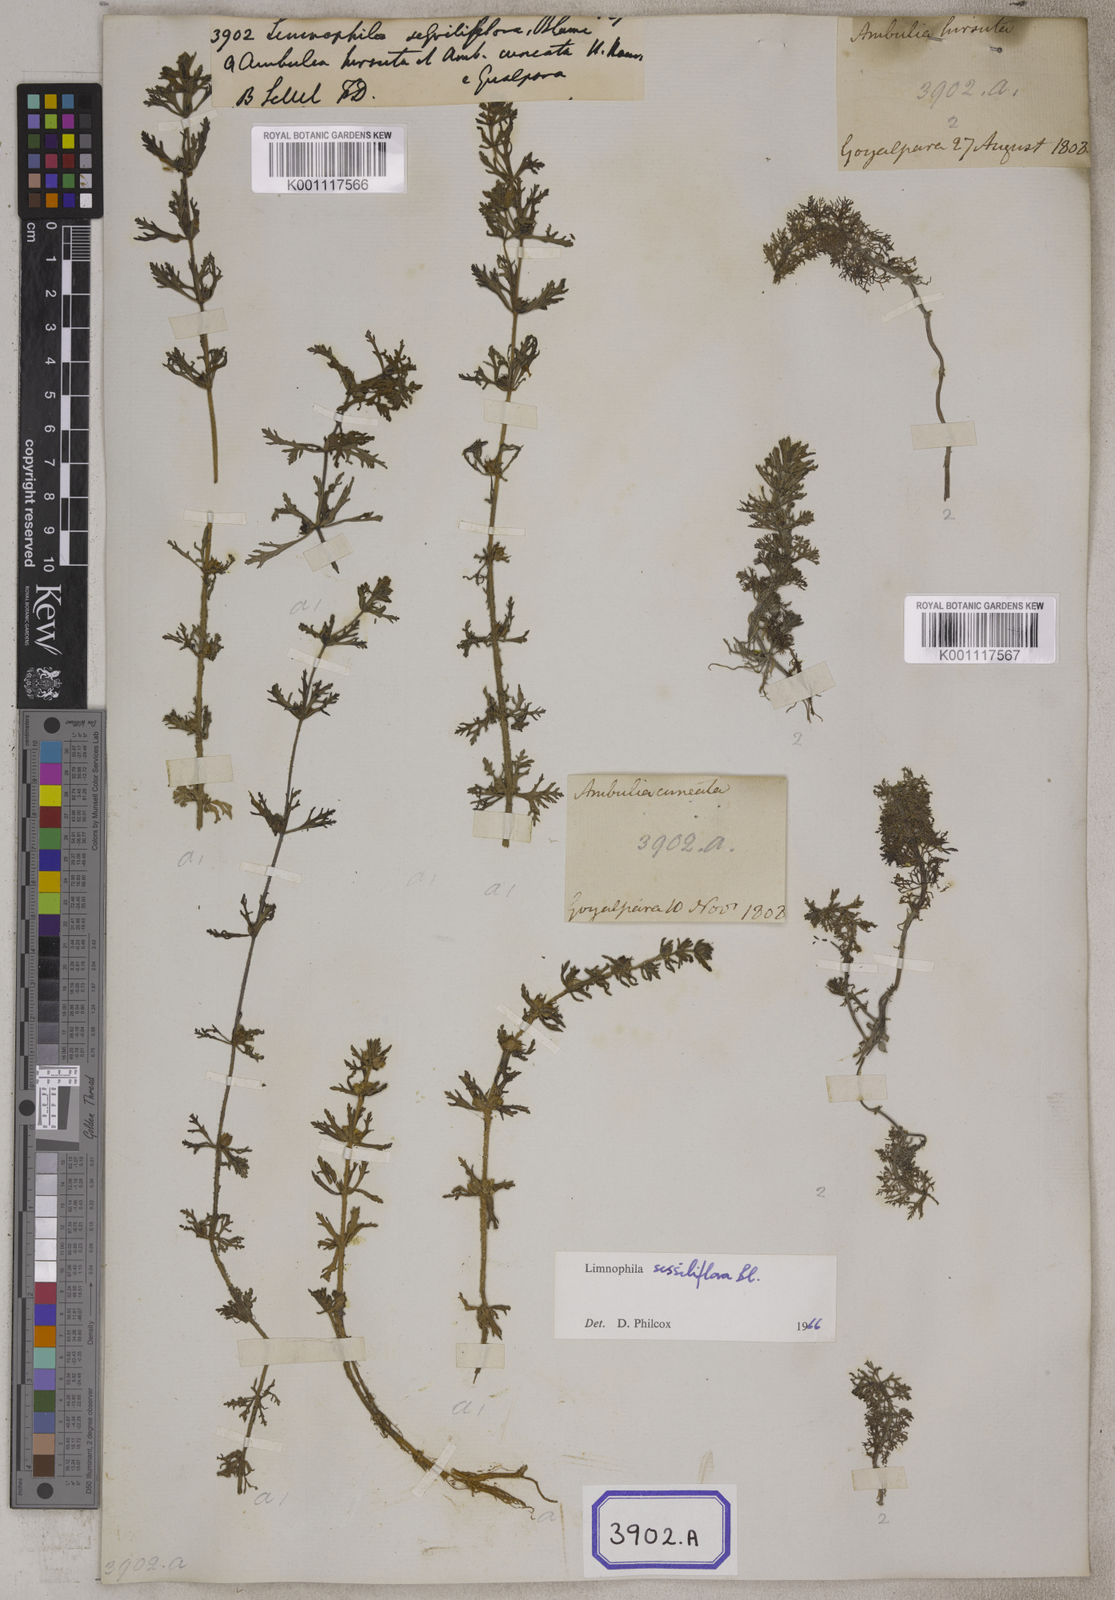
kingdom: Plantae
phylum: Tracheophyta
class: Magnoliopsida
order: Lamiales
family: Plantaginaceae
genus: Limnophila
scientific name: Limnophila sessiliflora
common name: Asian marshweed
